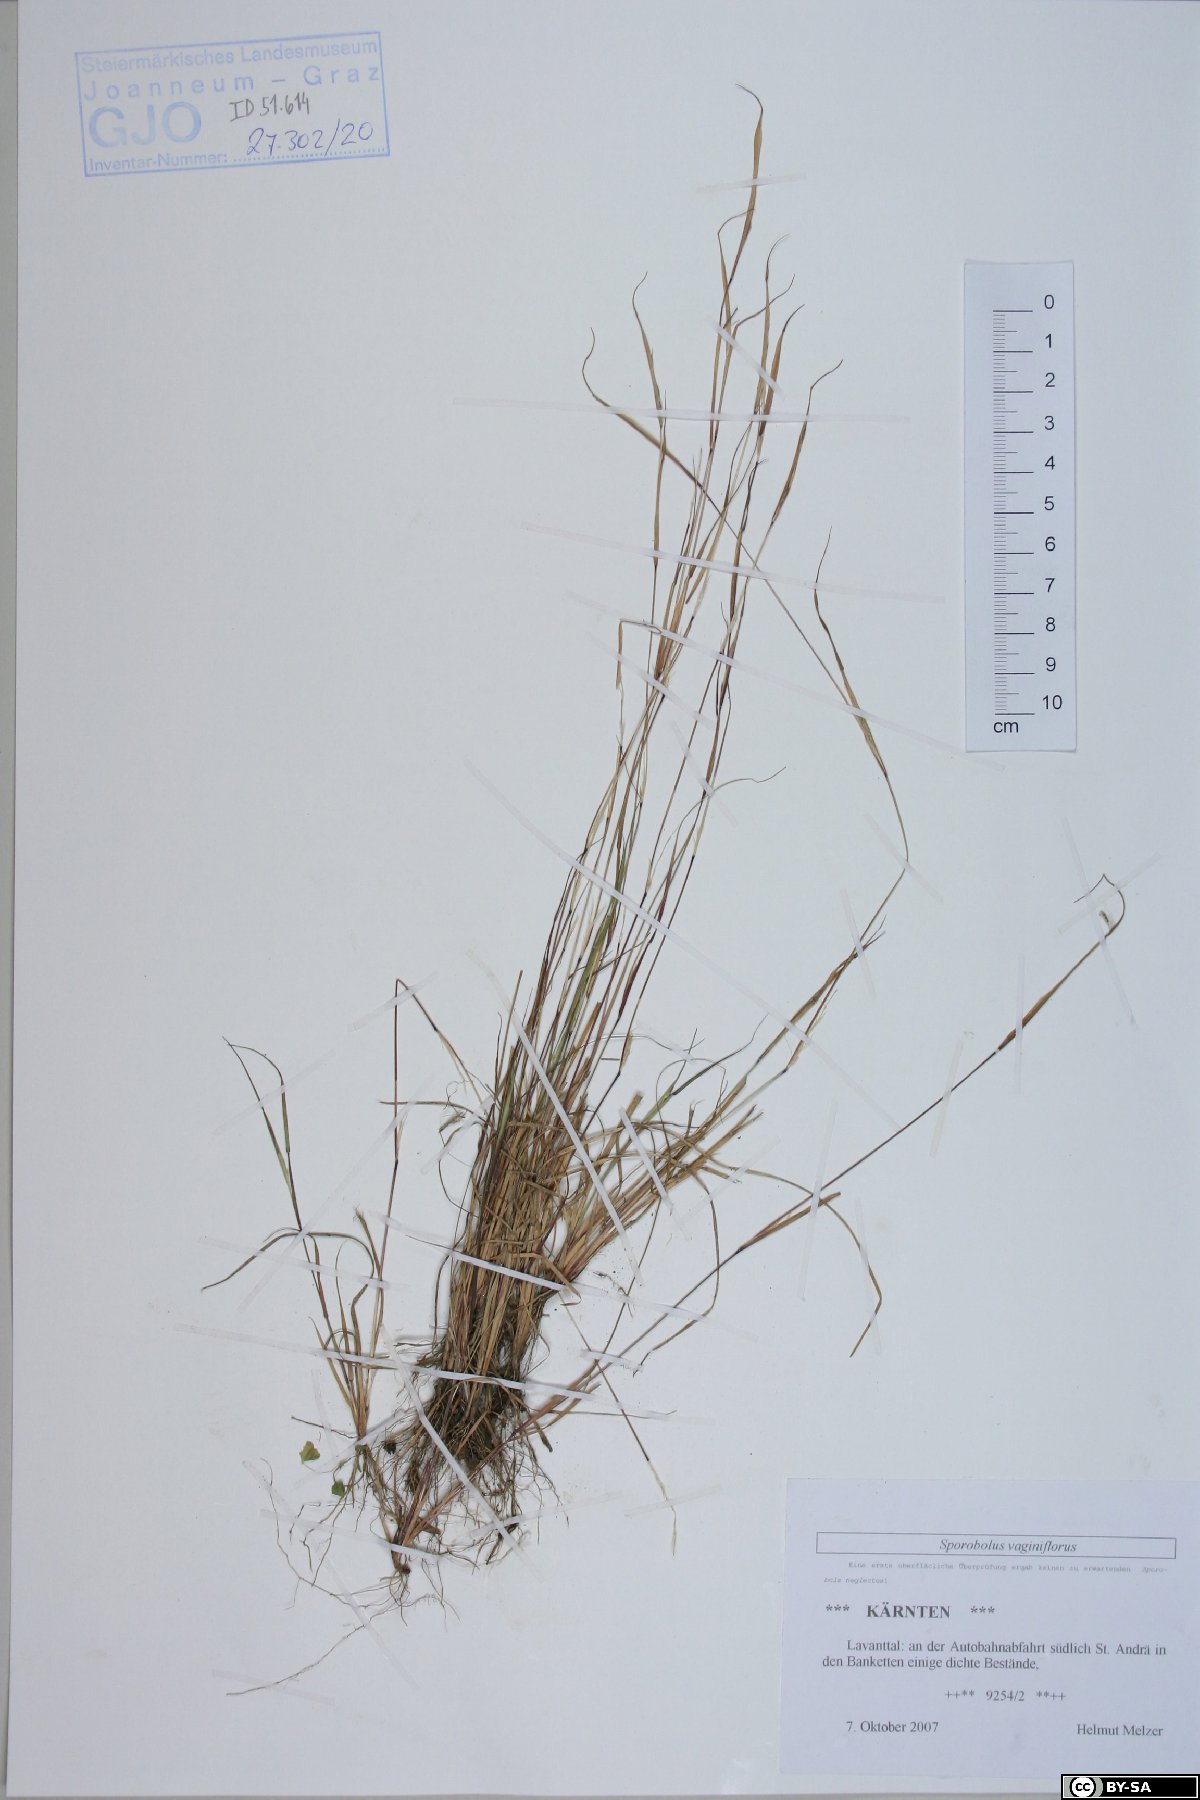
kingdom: Plantae
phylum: Tracheophyta
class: Liliopsida
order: Poales
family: Poaceae
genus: Sporobolus
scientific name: Sporobolus vaginiflorus
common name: Poverty dropseed
